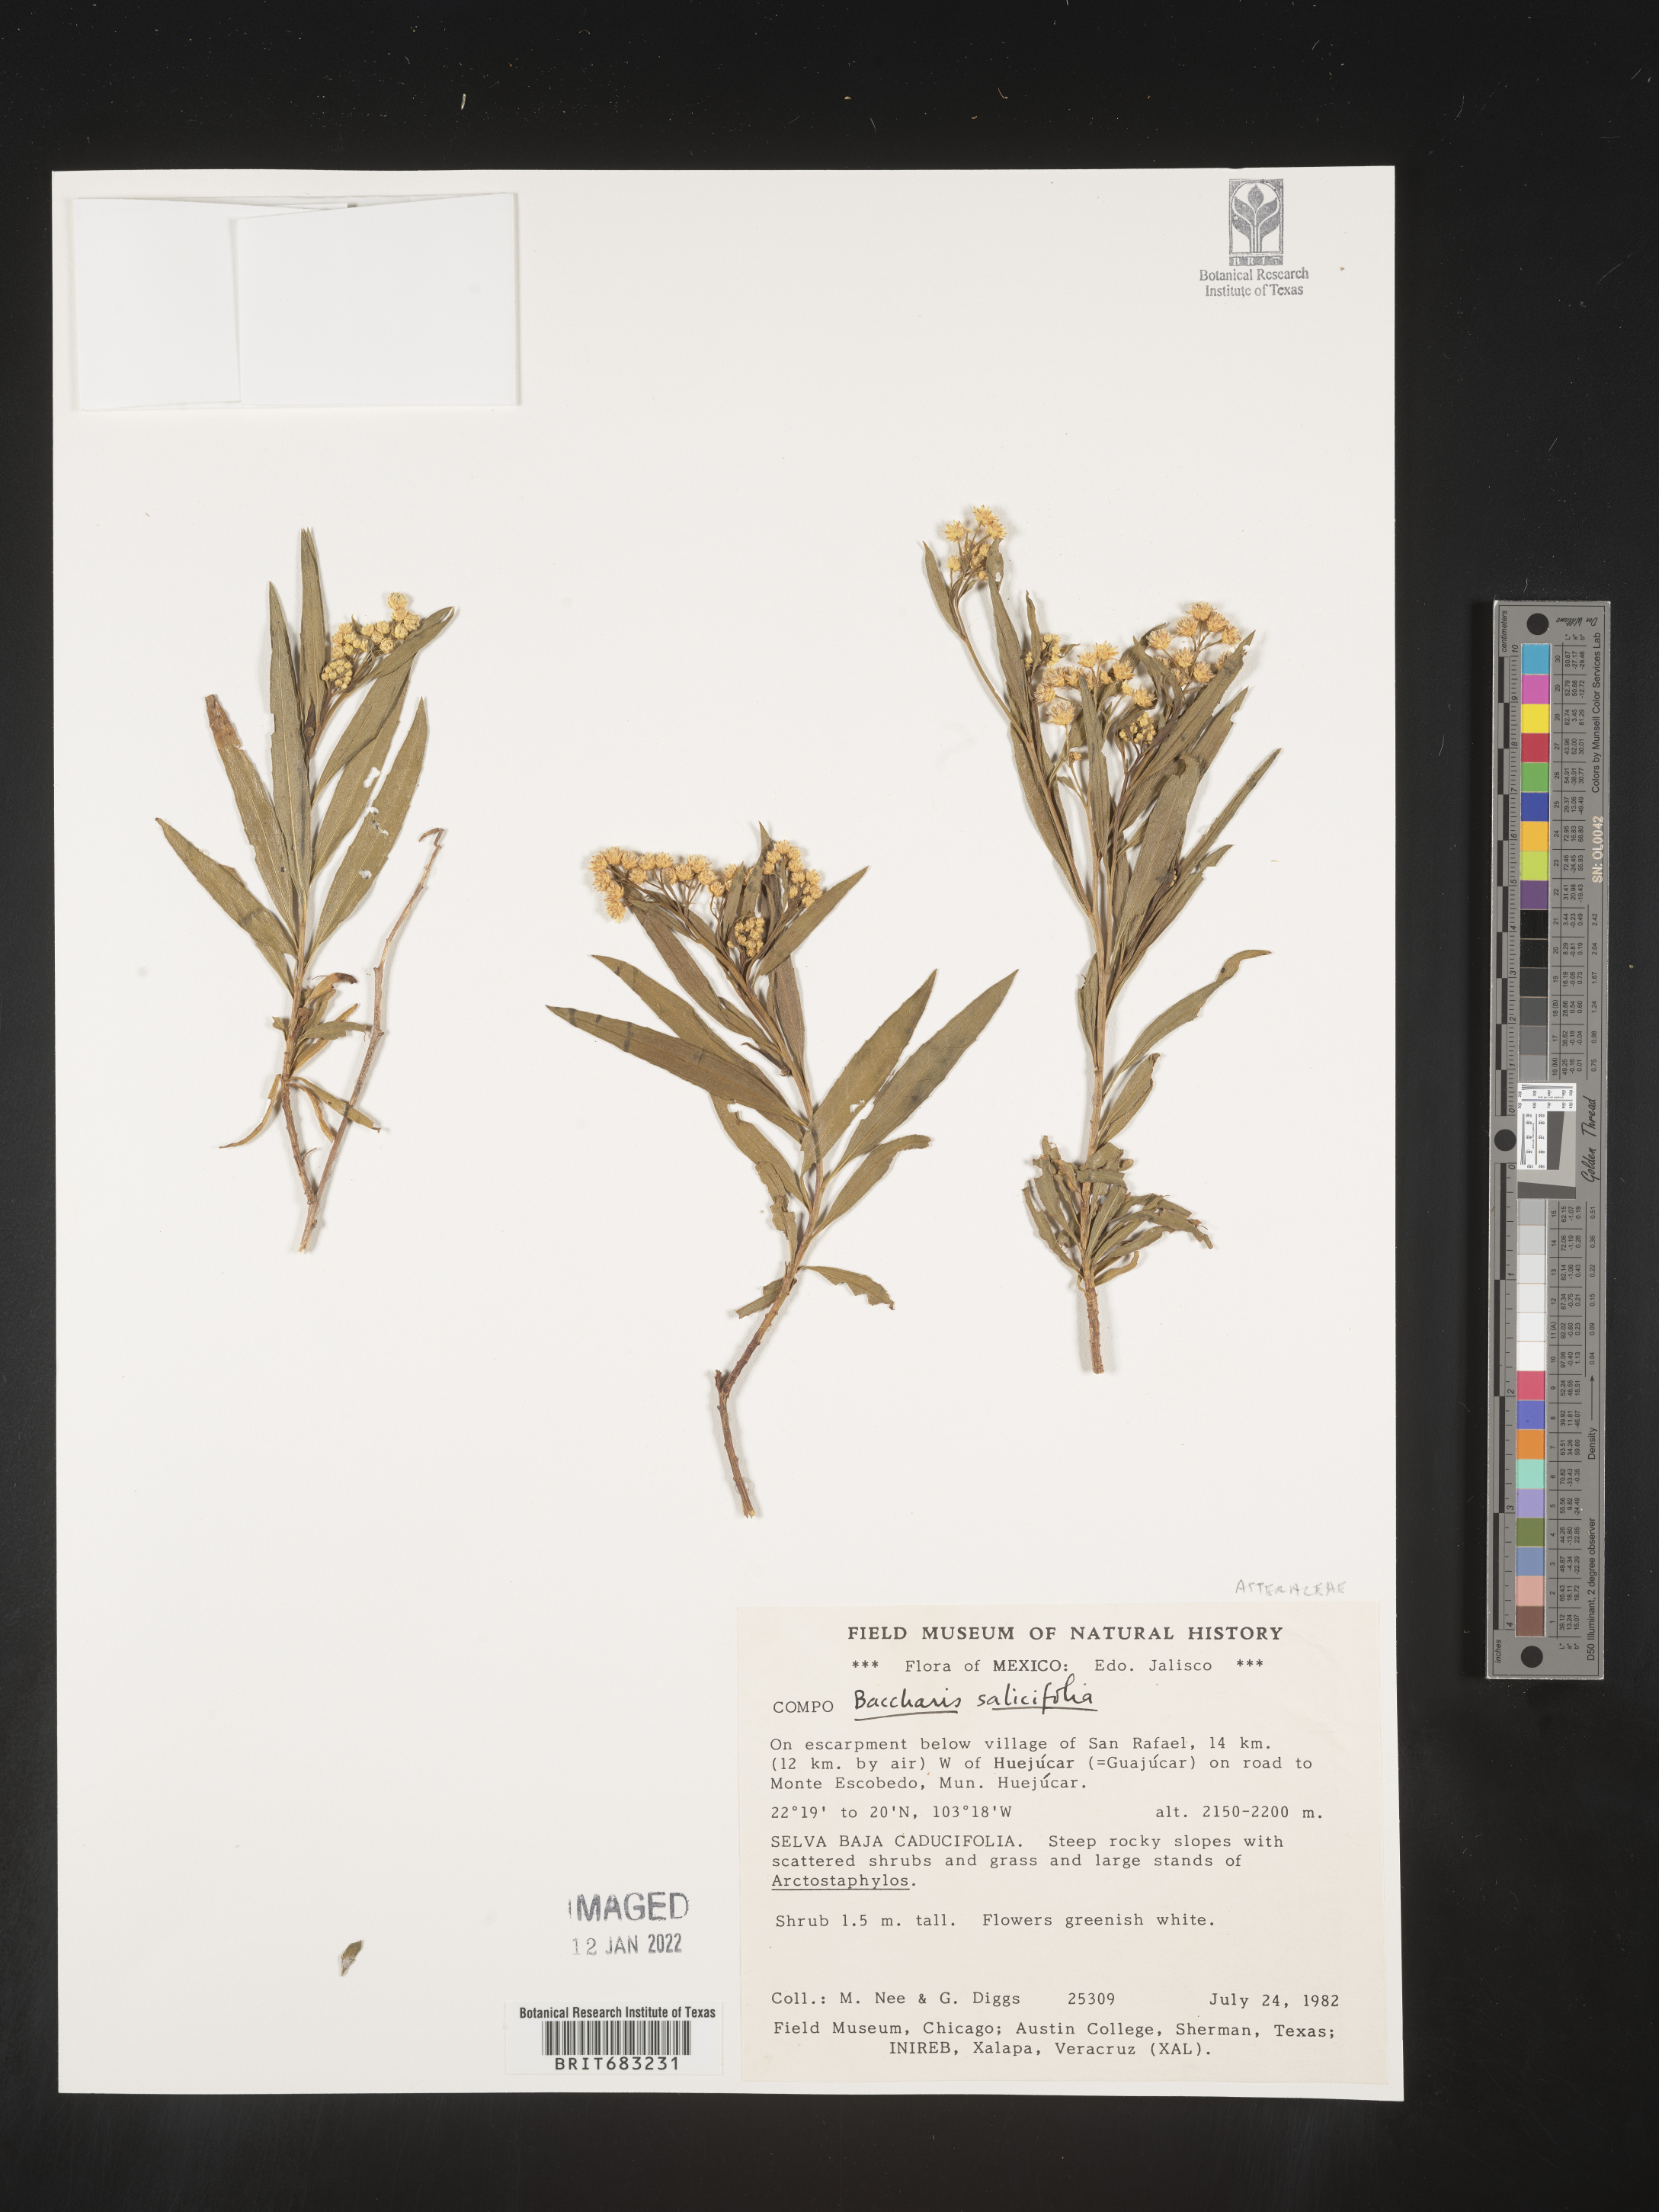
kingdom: Plantae
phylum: Tracheophyta
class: Magnoliopsida
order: Asterales
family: Asteraceae
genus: Baccharis
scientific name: Baccharis salicifolia
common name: Sticky baccharis
